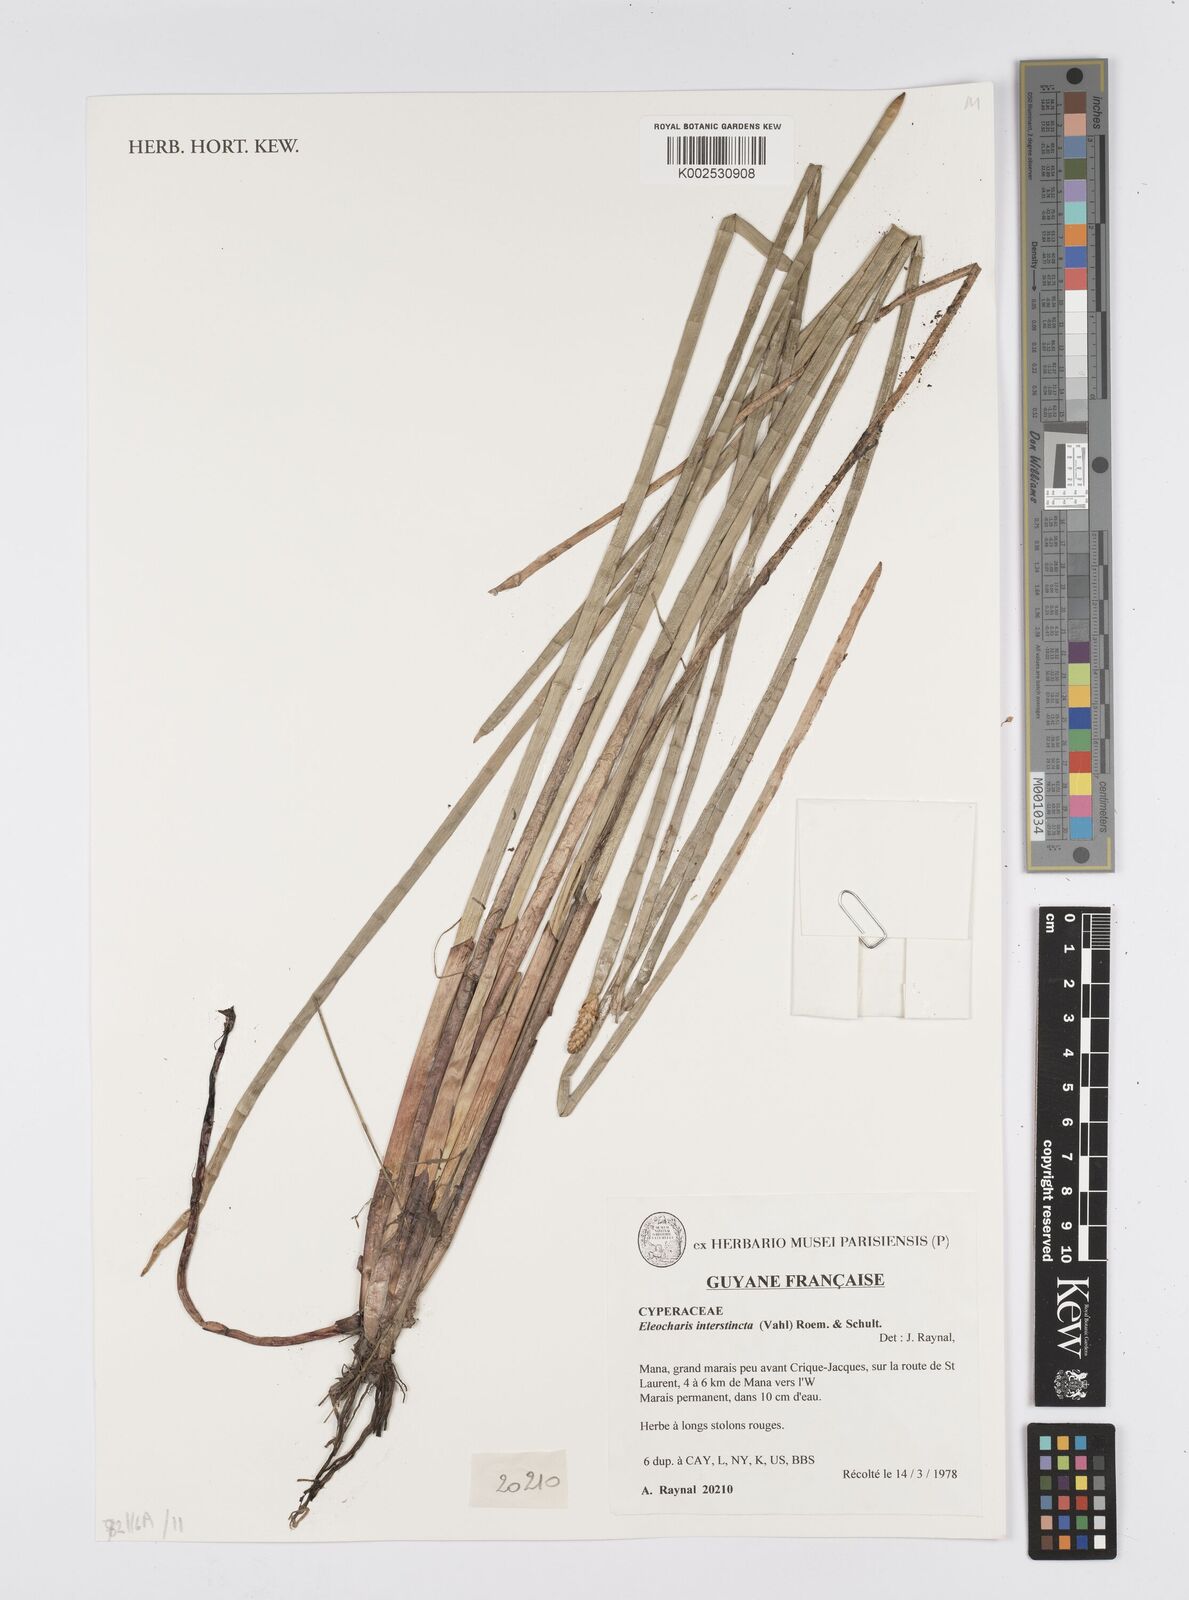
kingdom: Plantae
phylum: Tracheophyta
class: Liliopsida
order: Poales
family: Cyperaceae
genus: Eleocharis
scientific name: Eleocharis interstincta
